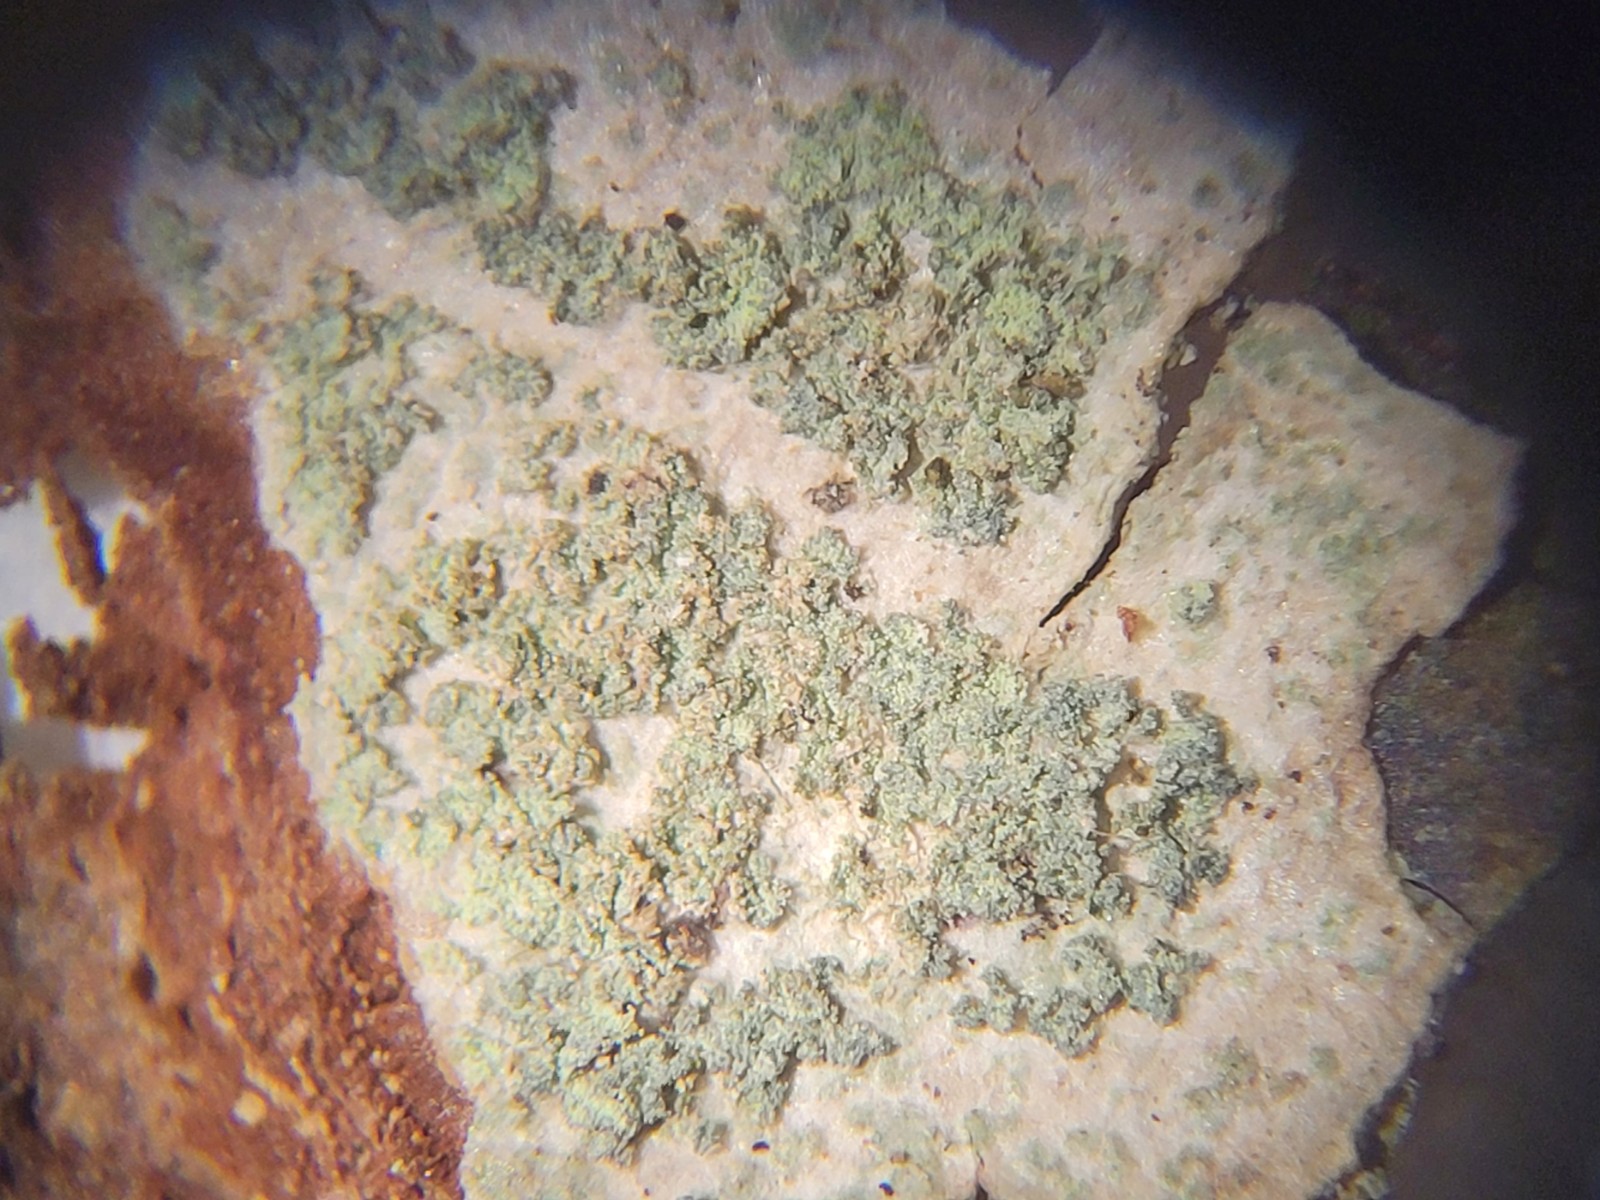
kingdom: Fungi
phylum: Ascomycota
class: Lecanoromycetes
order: Caliciales
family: Caliciaceae
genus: Buellia
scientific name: Buellia griseovirens
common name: grågrøn sortskivelav
